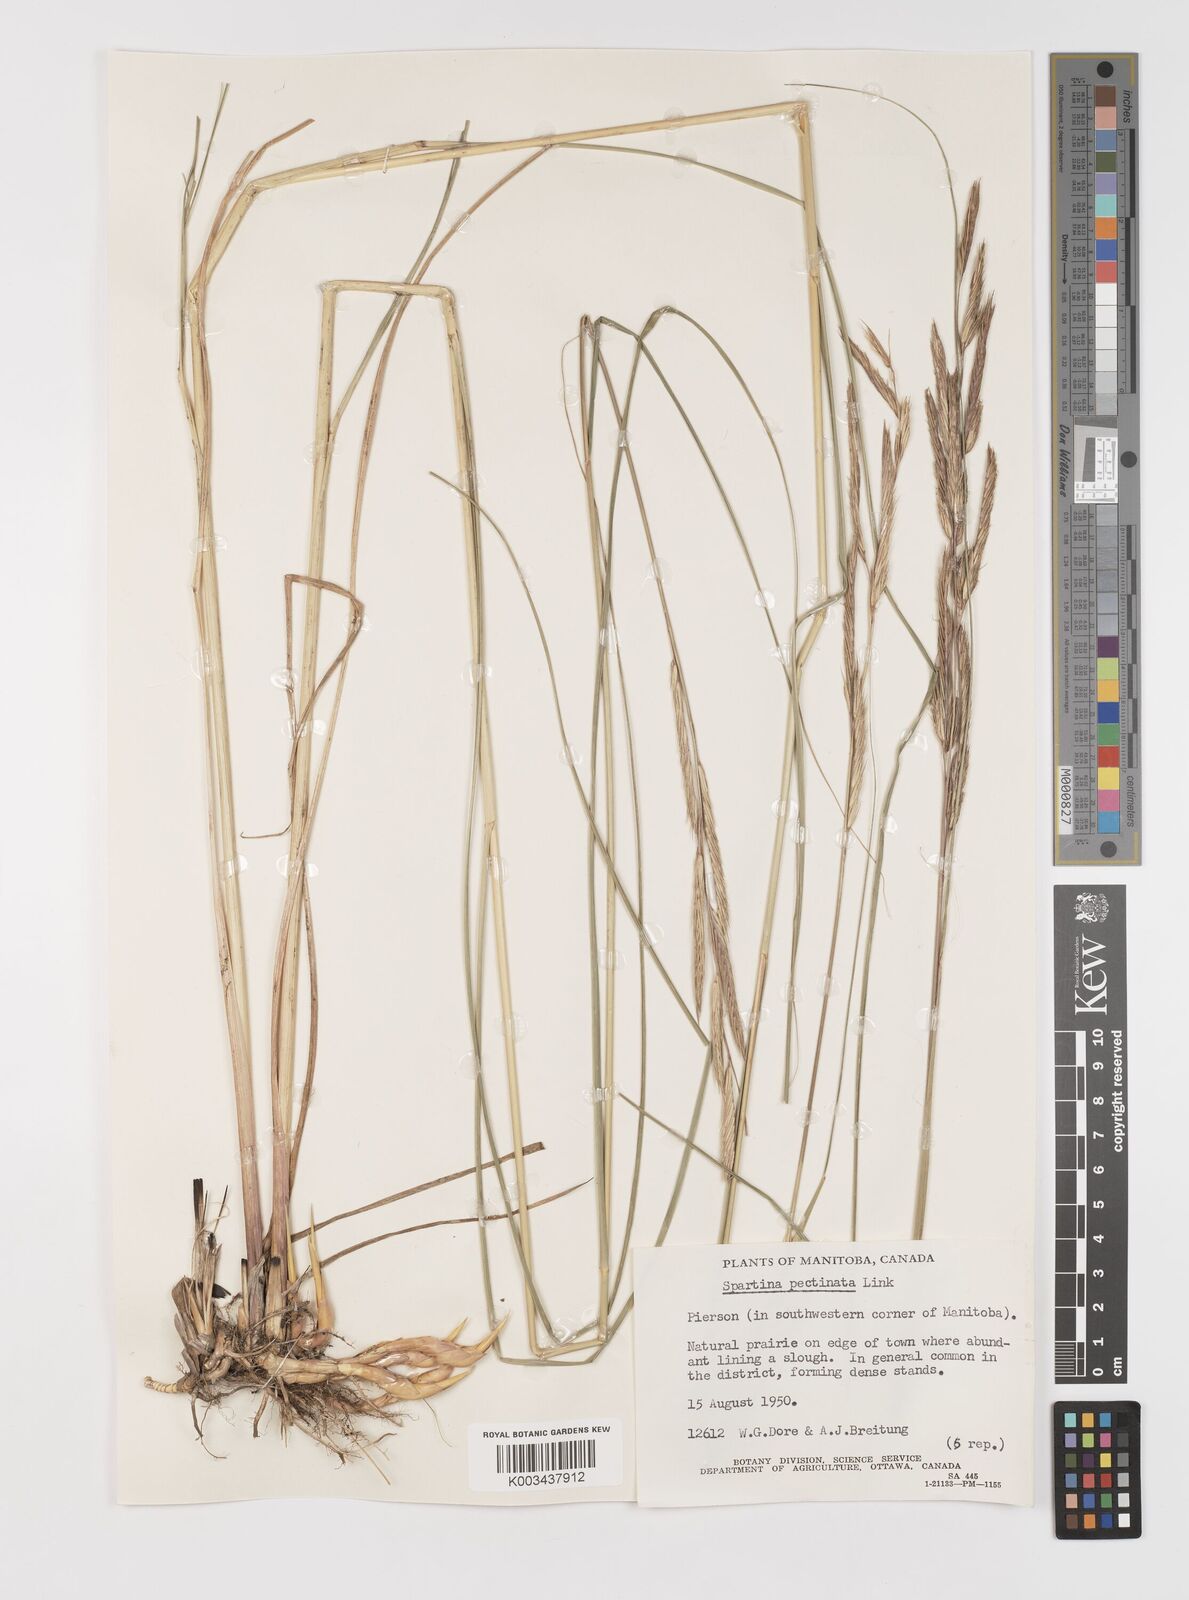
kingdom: Plantae
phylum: Tracheophyta
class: Liliopsida
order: Poales
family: Poaceae
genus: Sporobolus
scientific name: Sporobolus michauxianus
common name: Freshwater cordgrass
